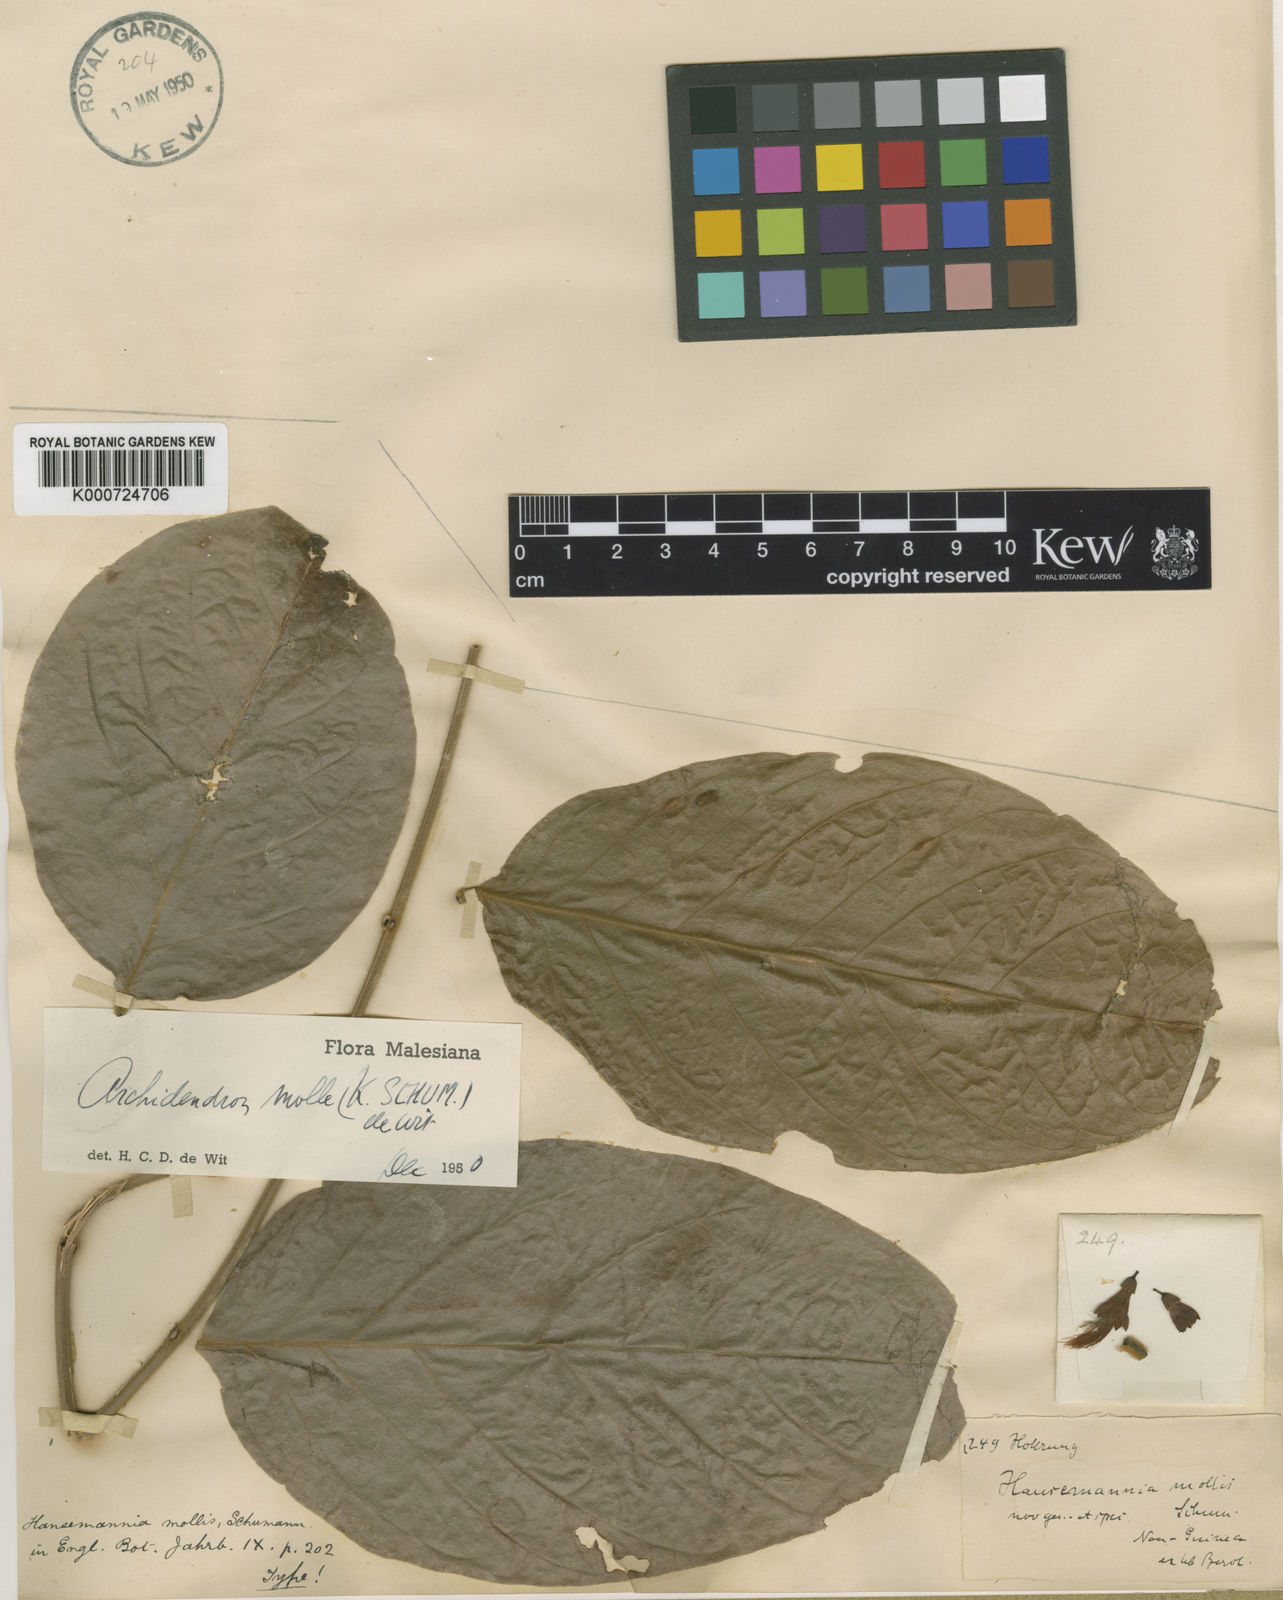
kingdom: Plantae
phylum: Tracheophyta
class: Magnoliopsida
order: Fabales
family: Fabaceae
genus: Archidendron
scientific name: Archidendron molle
